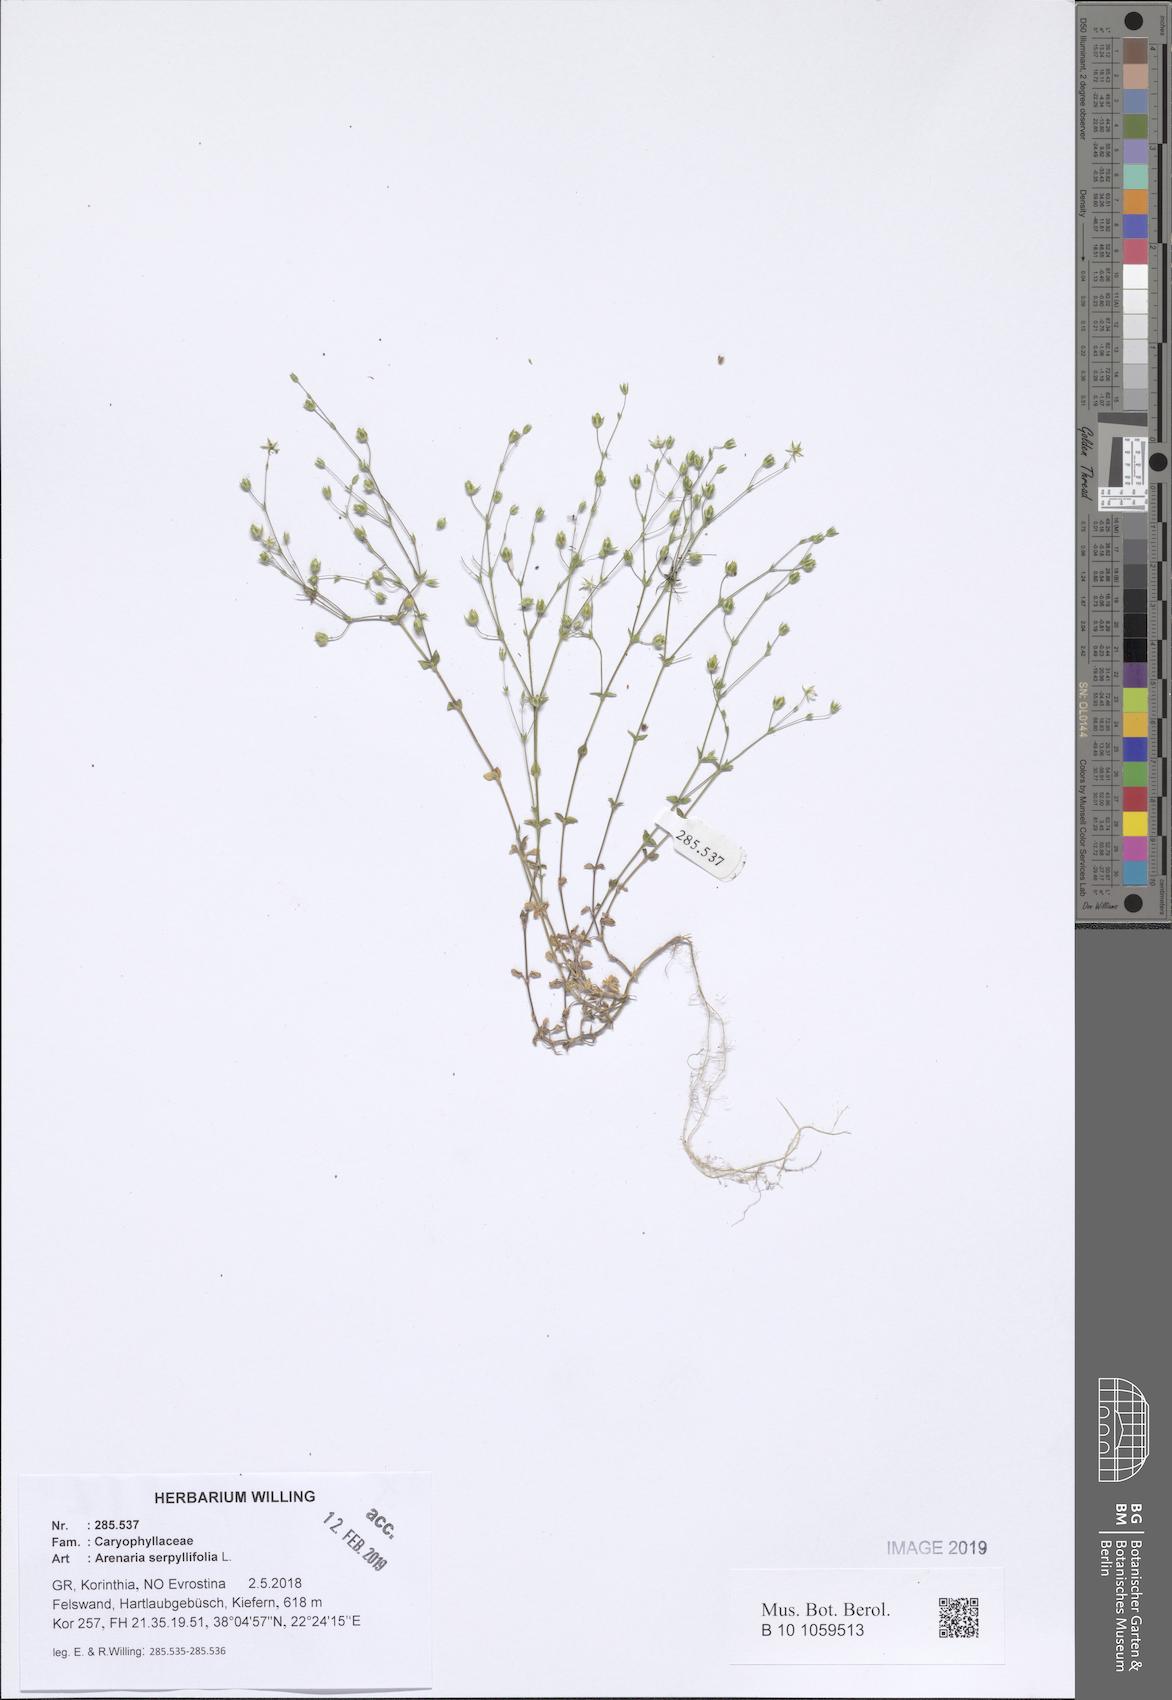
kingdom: Plantae
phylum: Tracheophyta
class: Magnoliopsida
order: Caryophyllales
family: Caryophyllaceae
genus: Arenaria
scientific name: Arenaria serpyllifolia
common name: Thyme-leaved sandwort
